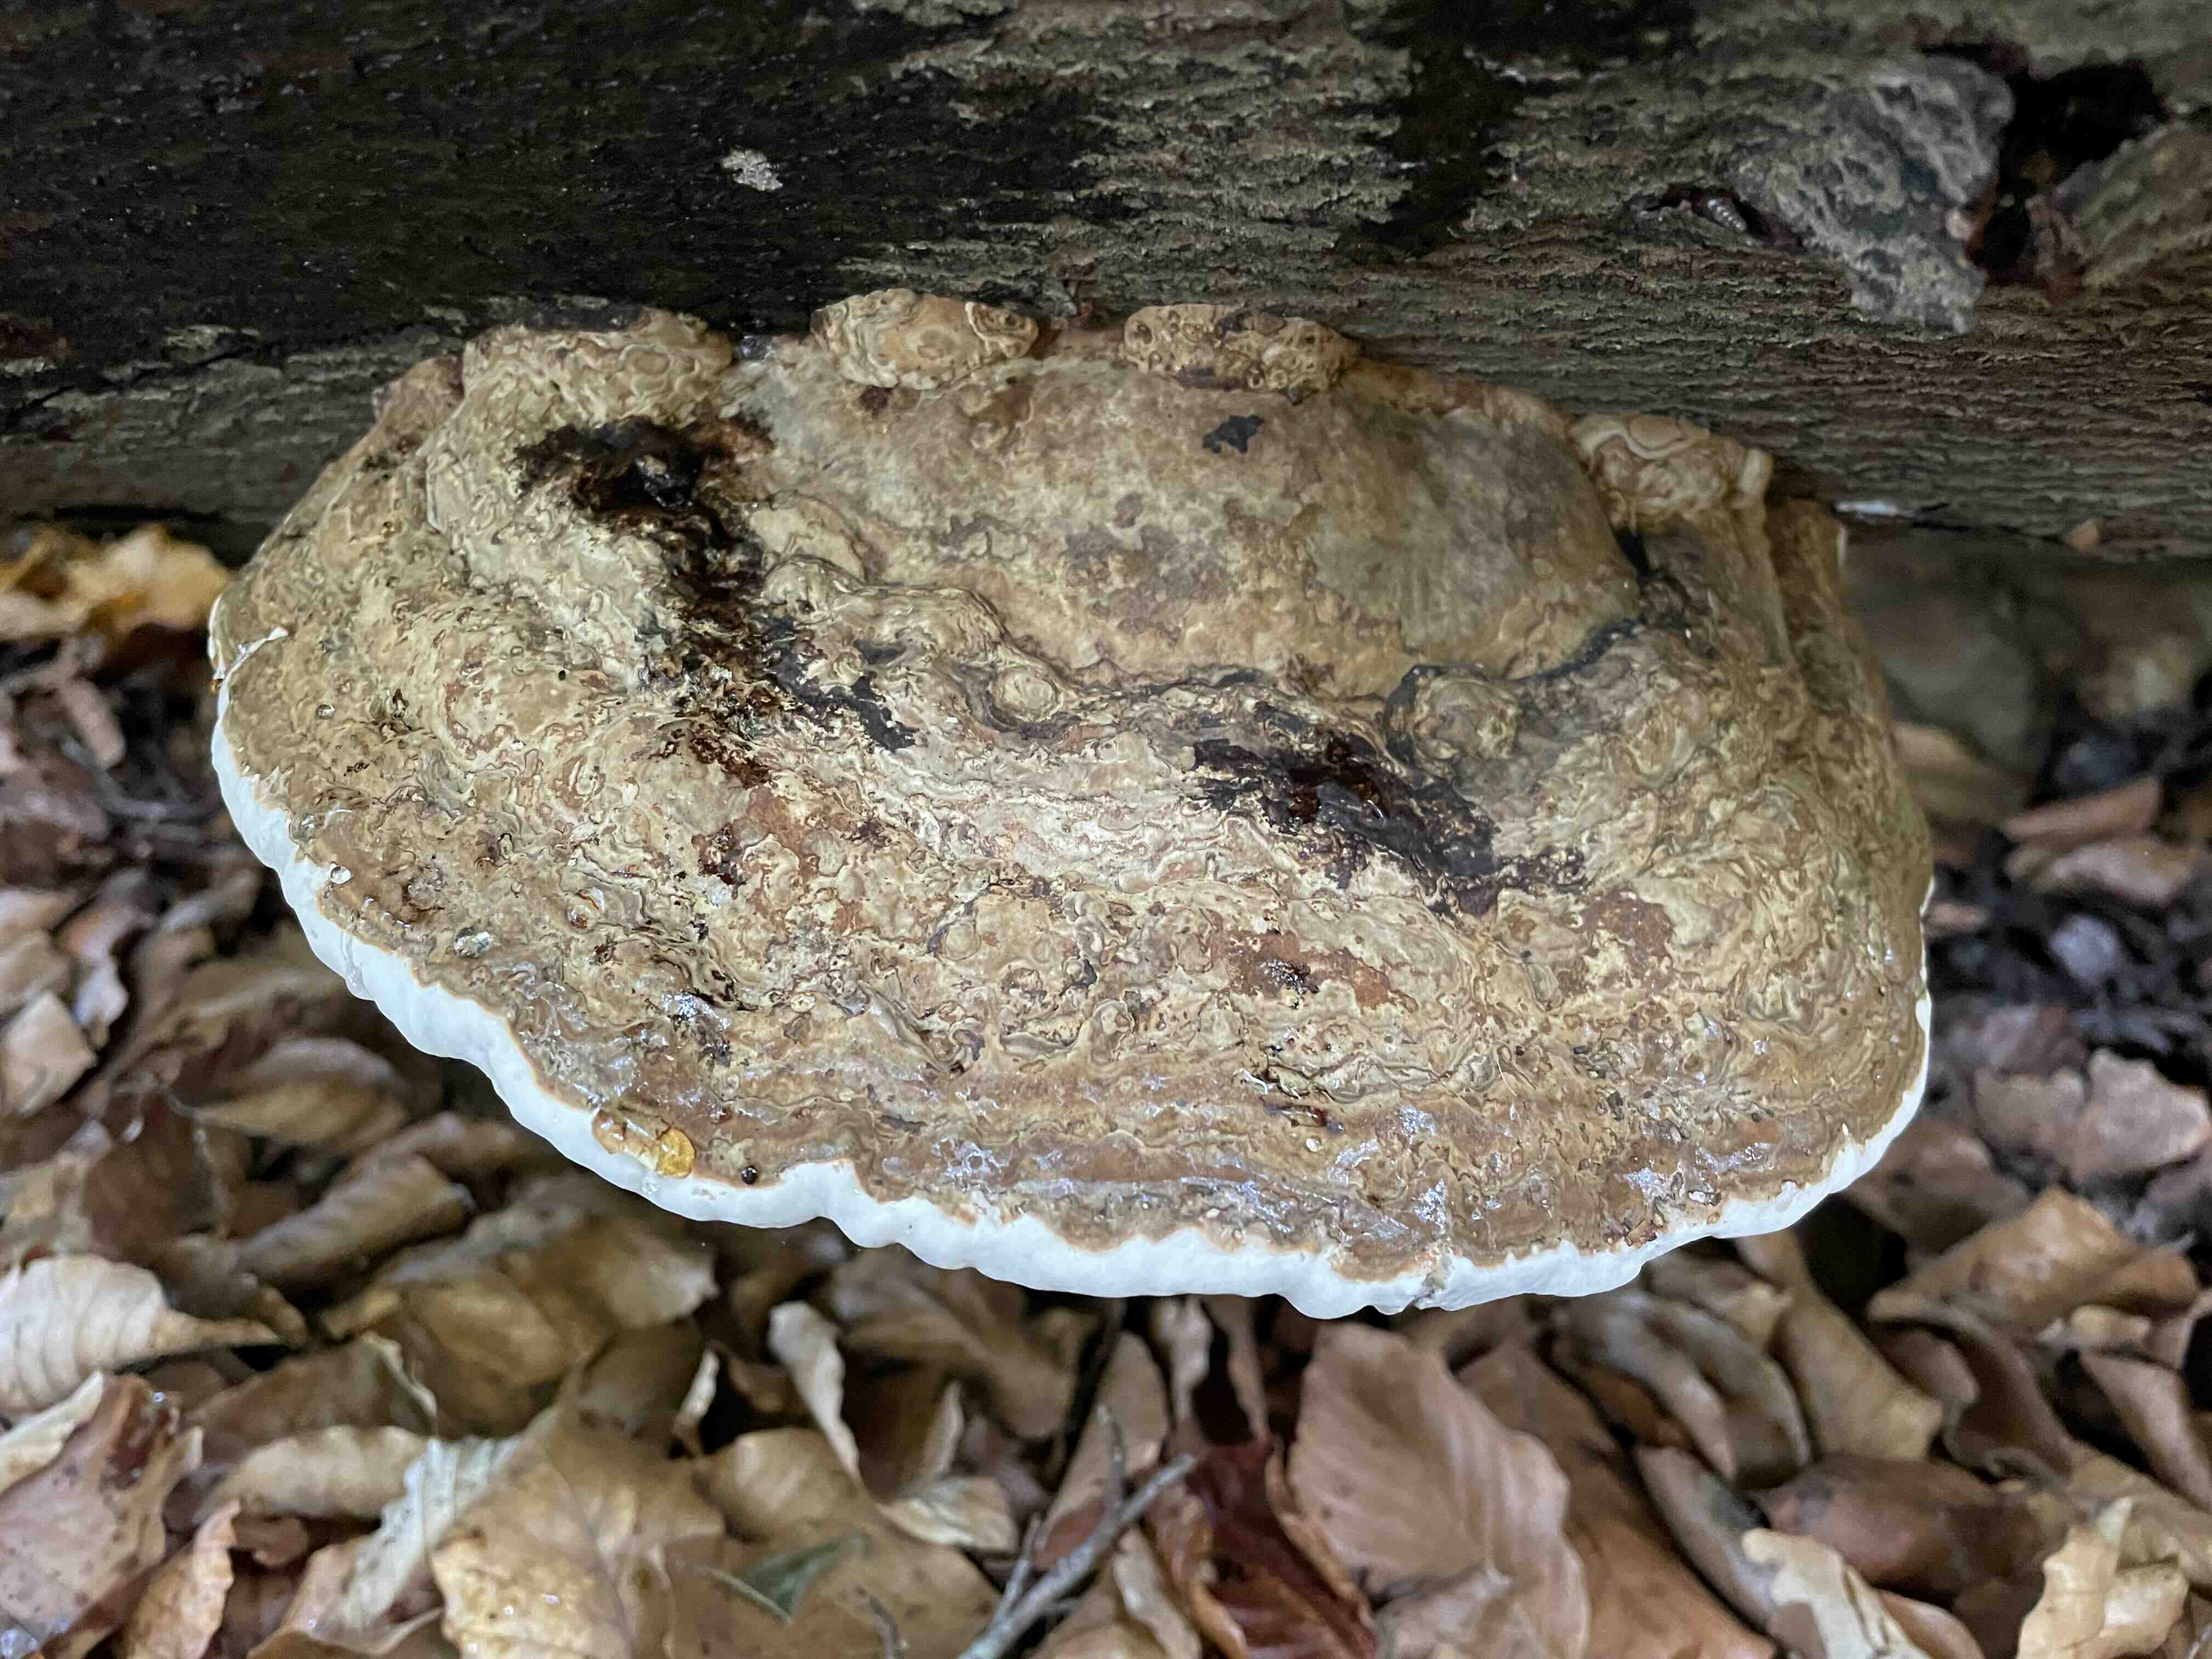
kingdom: Fungi
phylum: Basidiomycota
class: Agaricomycetes
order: Polyporales
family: Polyporaceae
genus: Fomes
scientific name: Fomes fomentarius
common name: tøndersvamp
